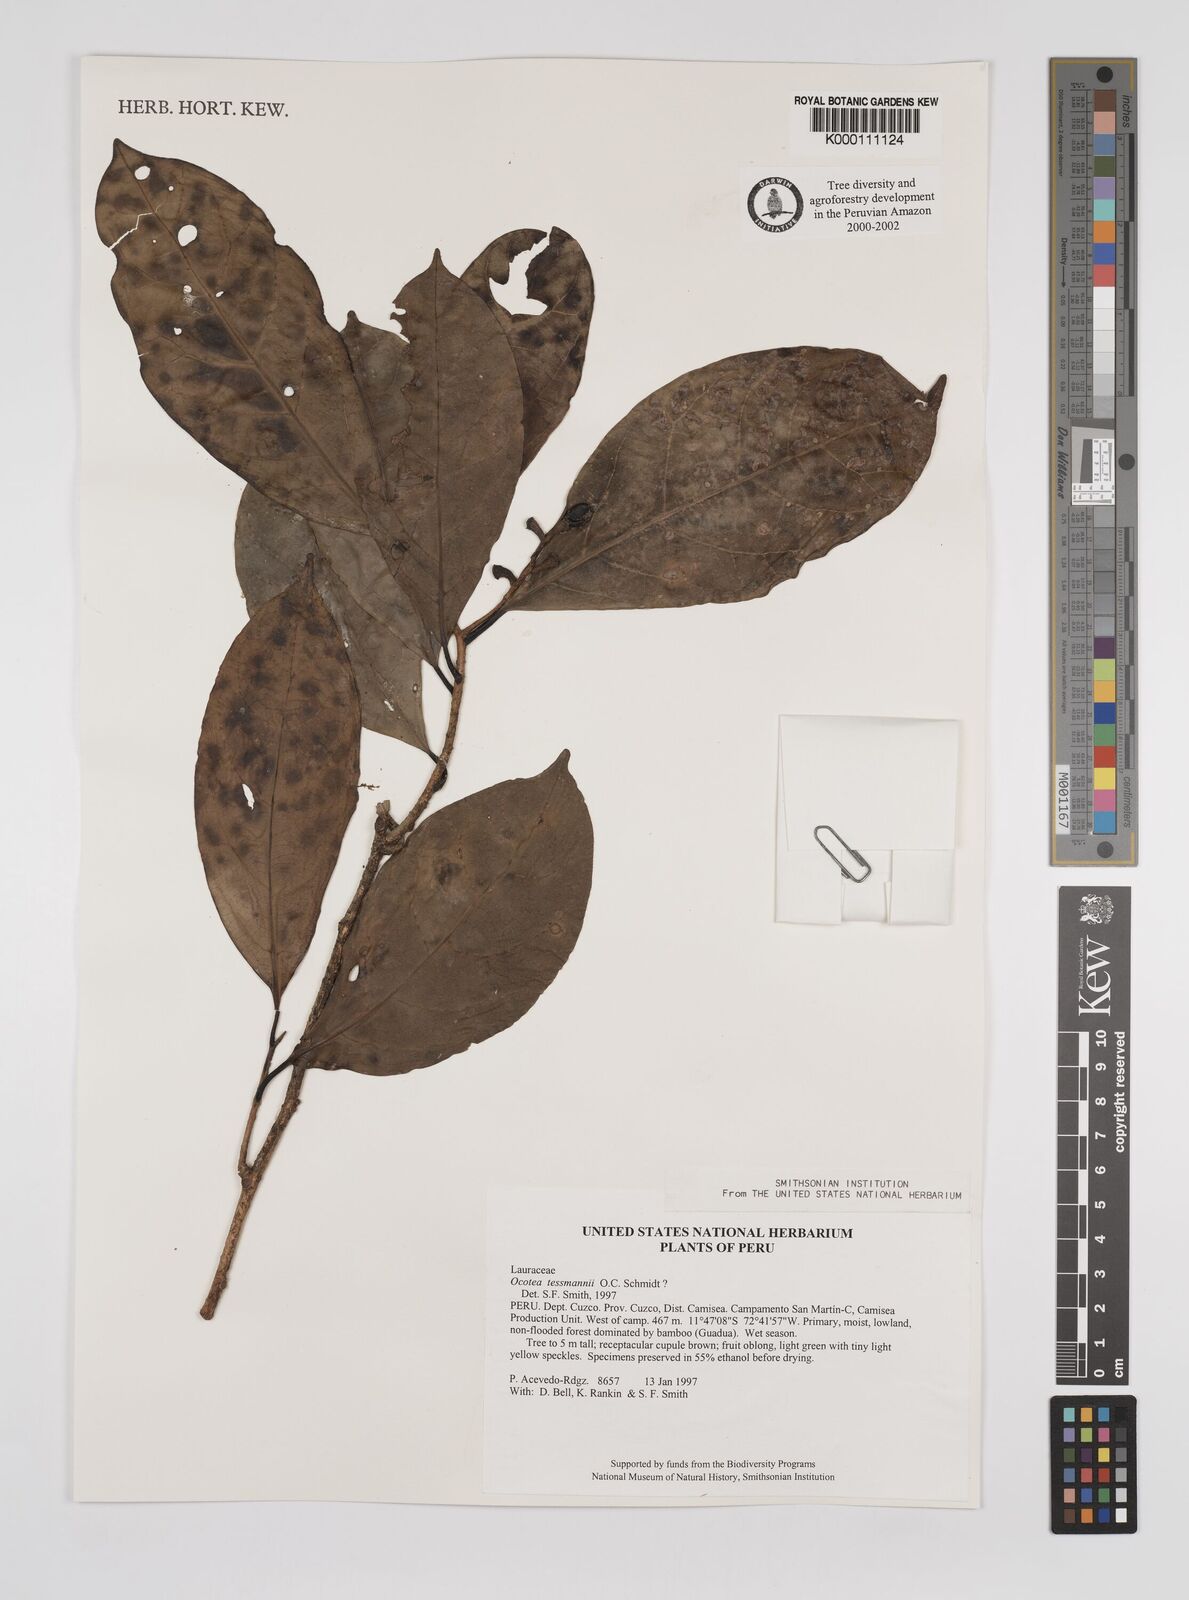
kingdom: Plantae
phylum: Tracheophyta
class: Magnoliopsida
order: Laurales
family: Lauraceae
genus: Ocotea
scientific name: Ocotea tessmannii
